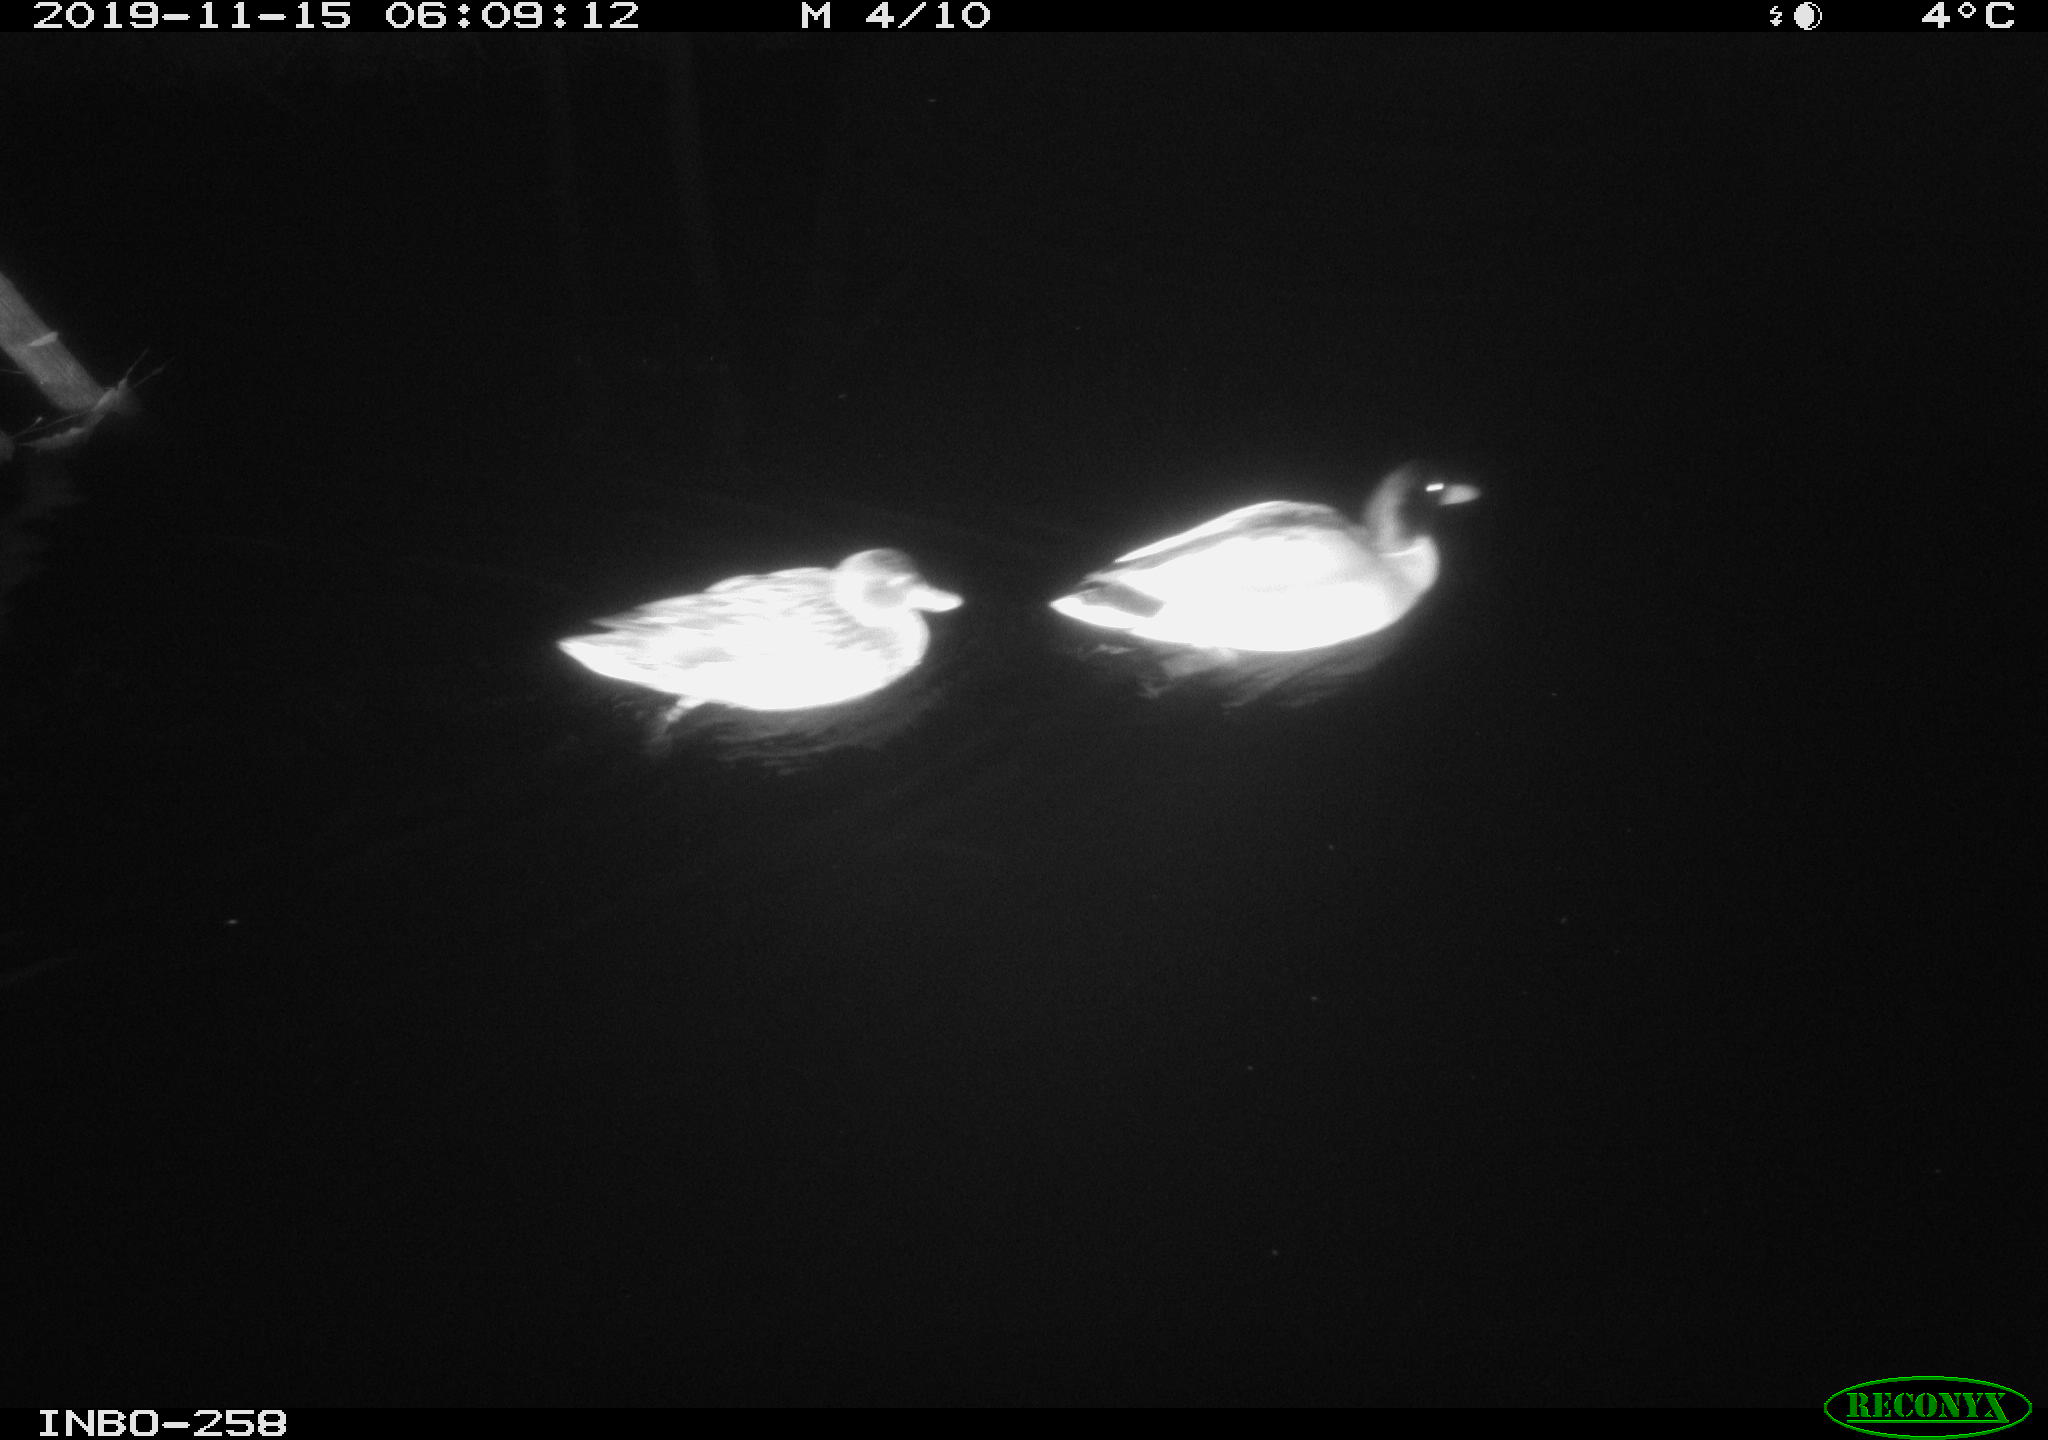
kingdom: Animalia
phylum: Chordata
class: Aves
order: Anseriformes
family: Anatidae
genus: Anas
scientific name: Anas platyrhynchos
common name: Mallard
